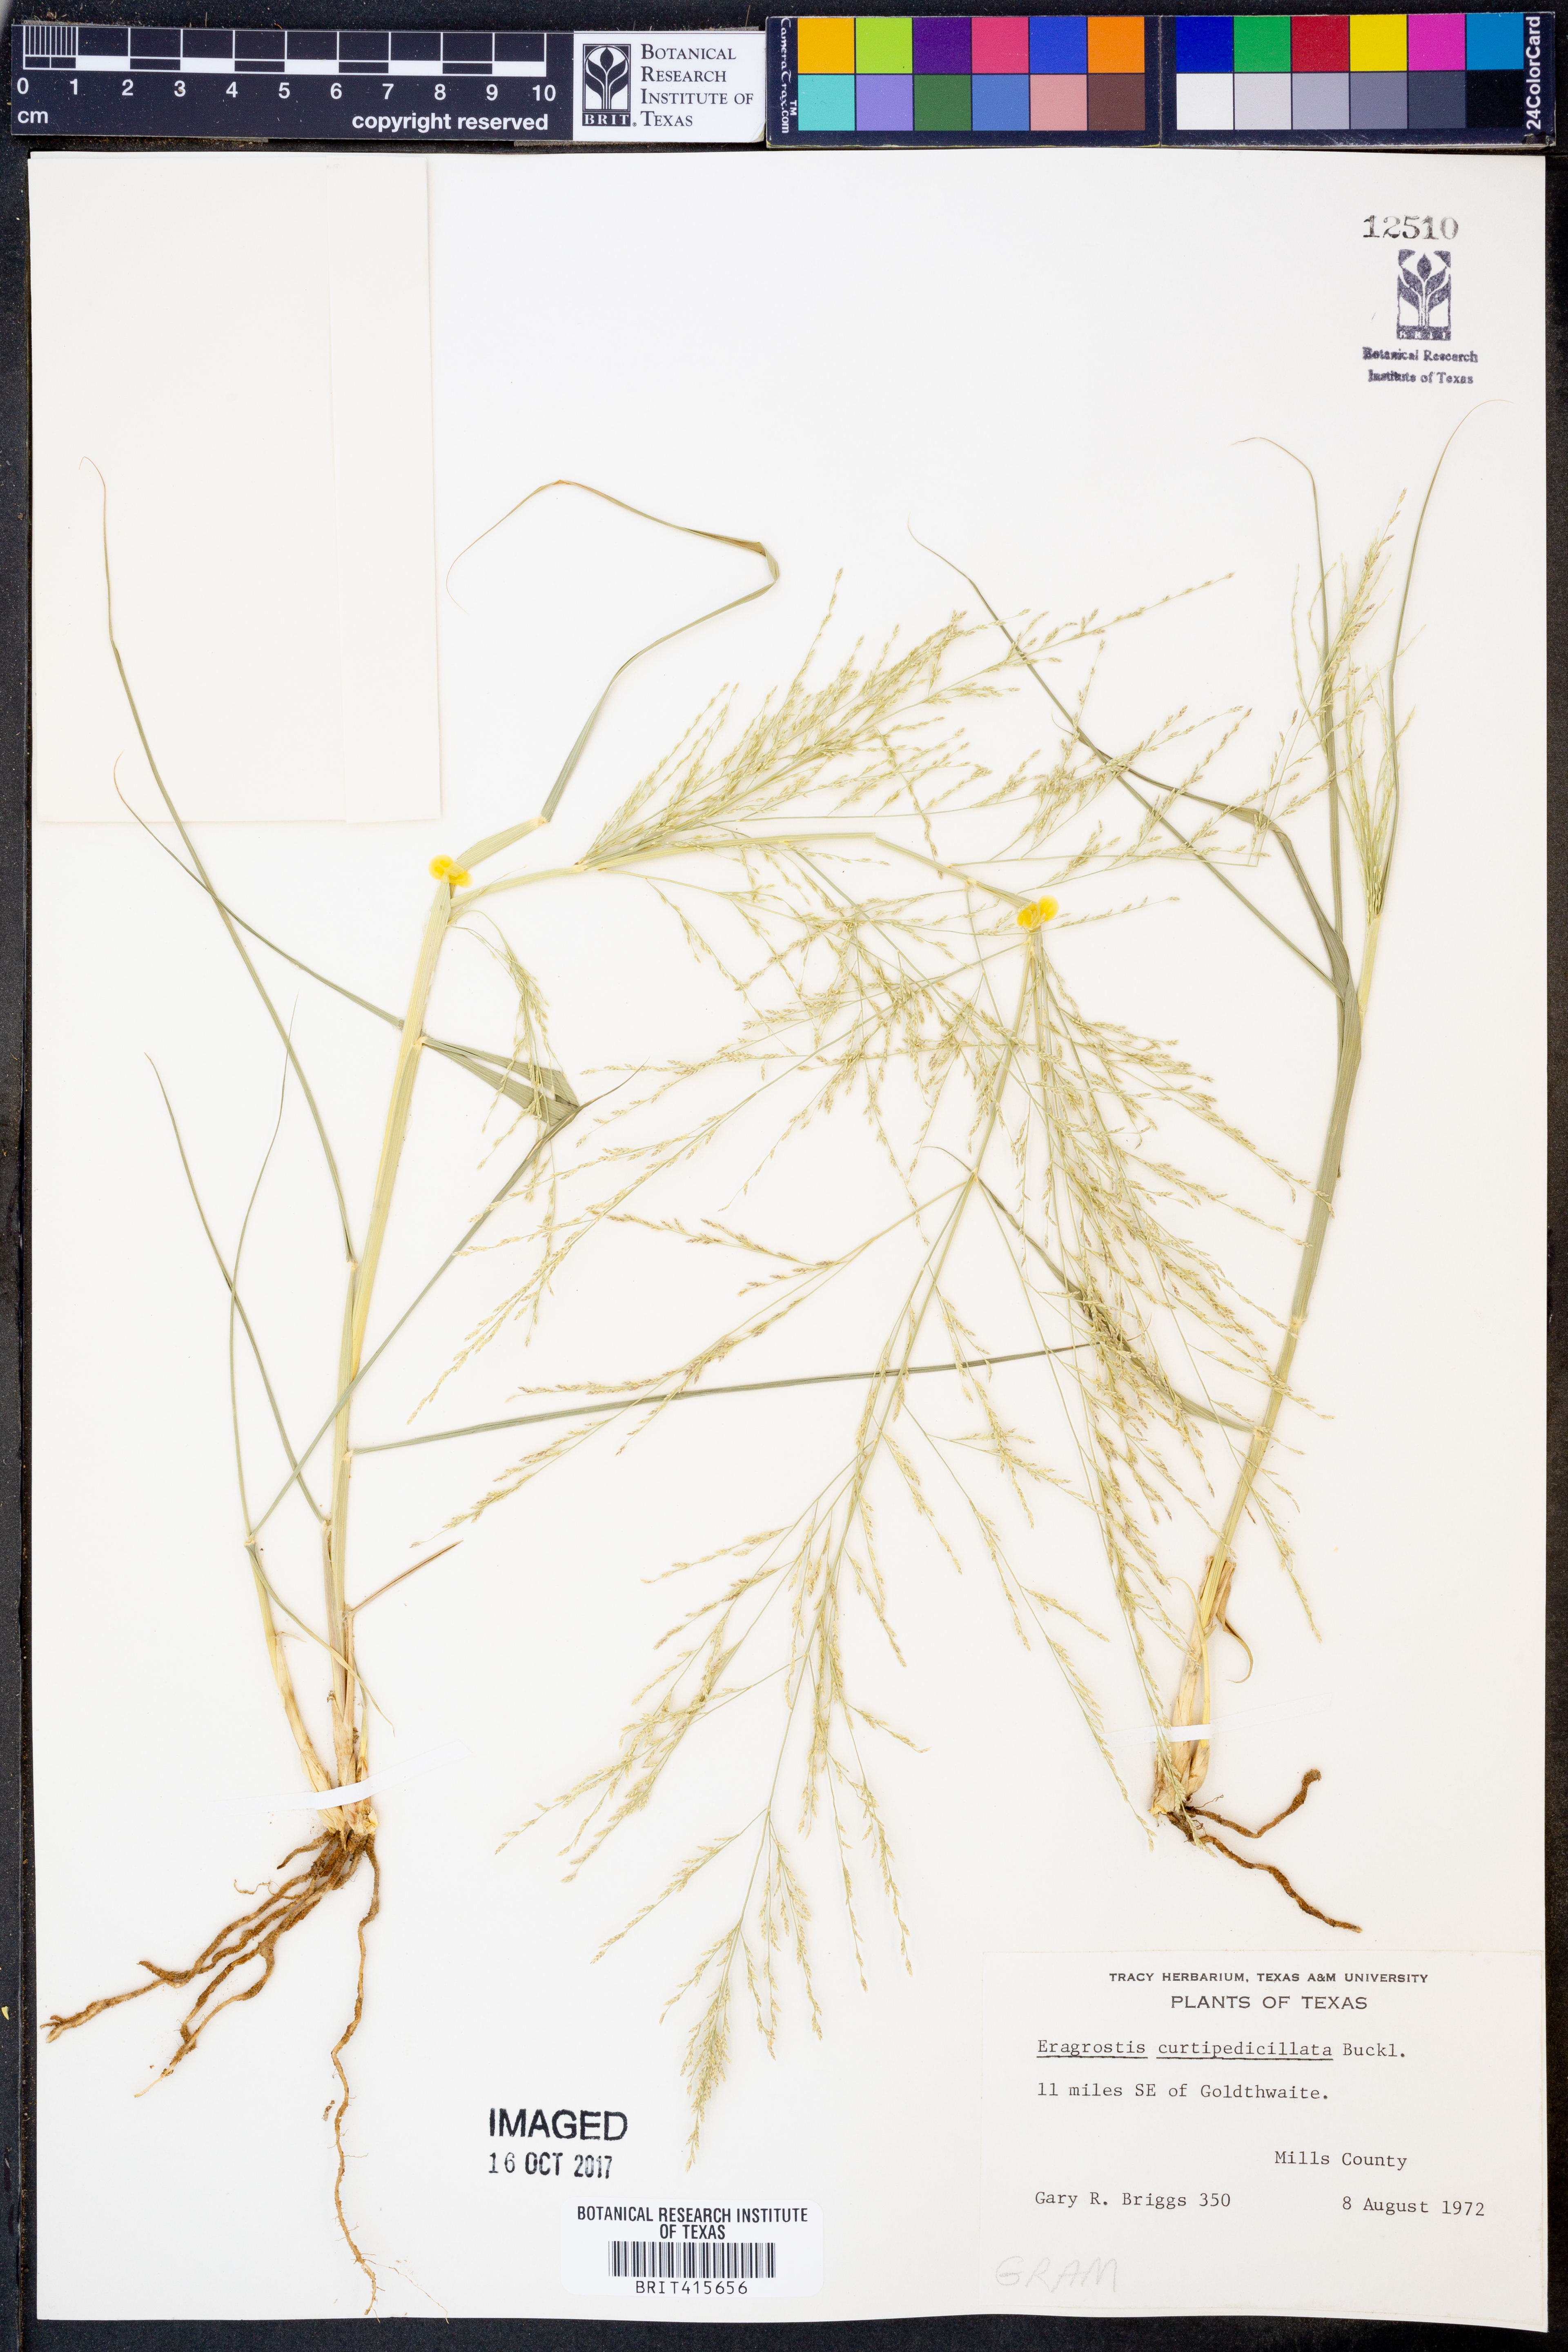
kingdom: Plantae
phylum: Tracheophyta
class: Liliopsida
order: Poales
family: Poaceae
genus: Eragrostis
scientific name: Eragrostis curtipedicellata
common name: Gummy love grass
